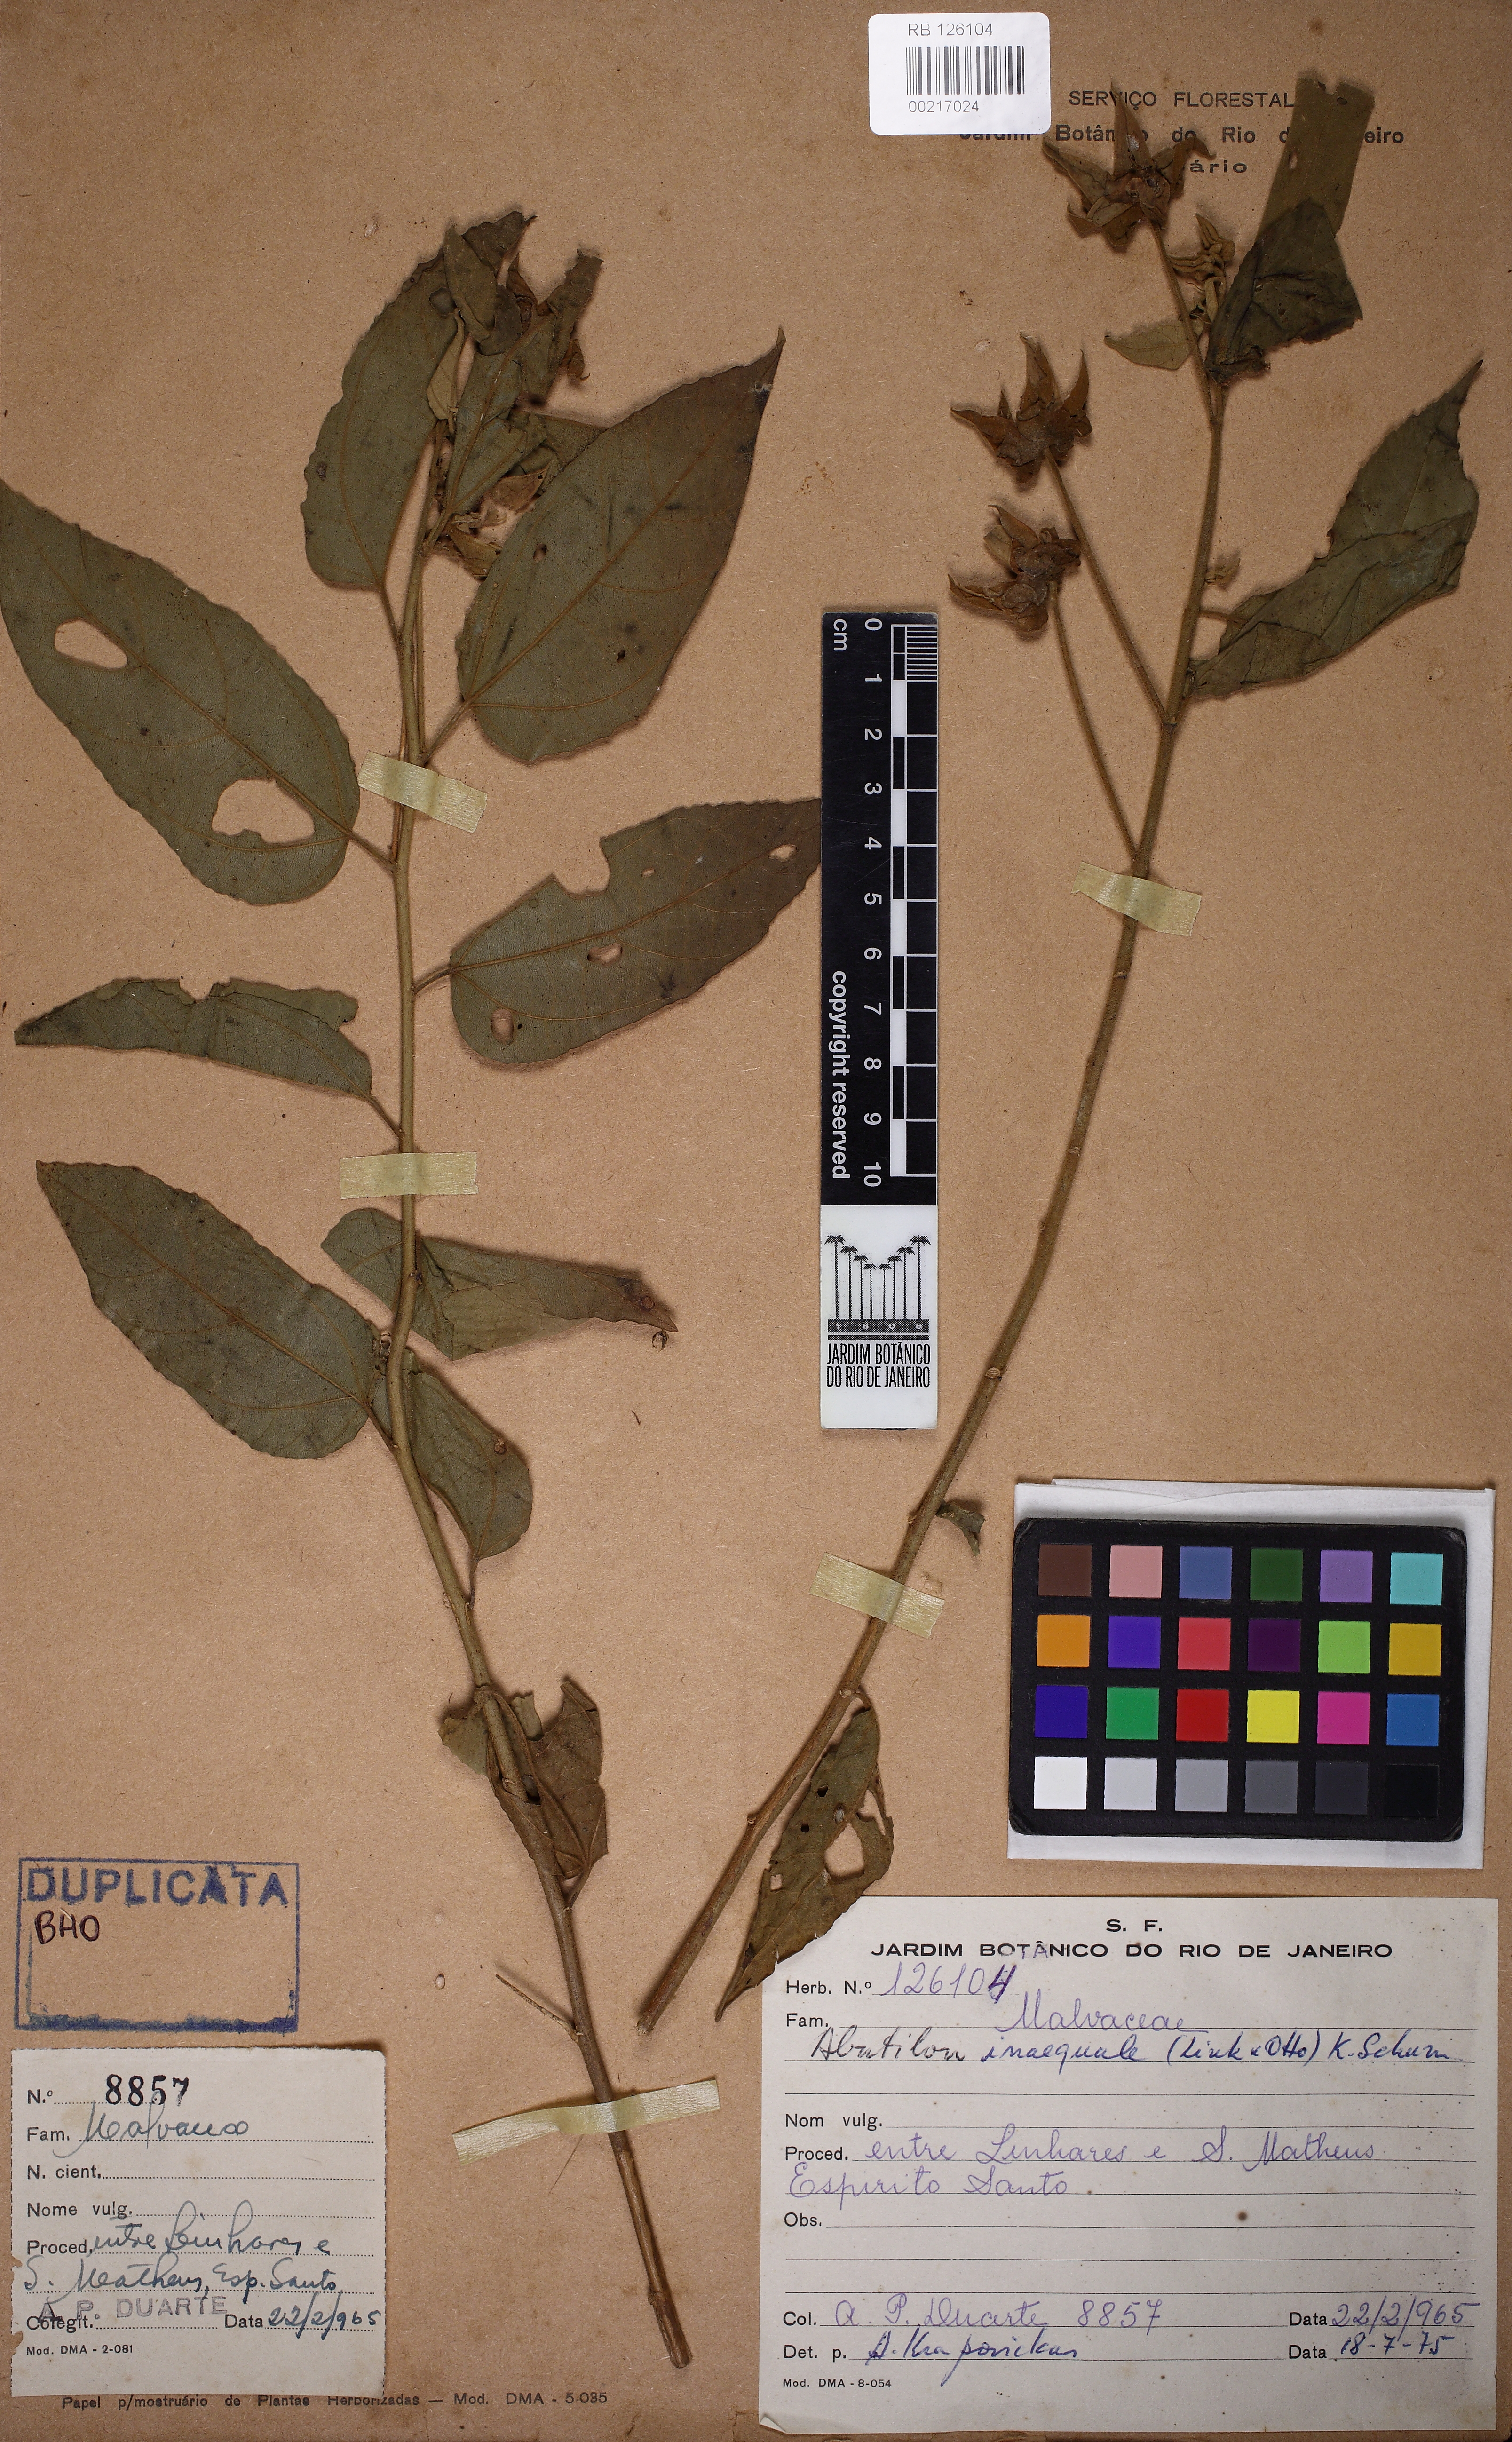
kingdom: Plantae
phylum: Tracheophyta
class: Magnoliopsida
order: Malvales
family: Malvaceae
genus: Callianthe
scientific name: Callianthe inaequalis
